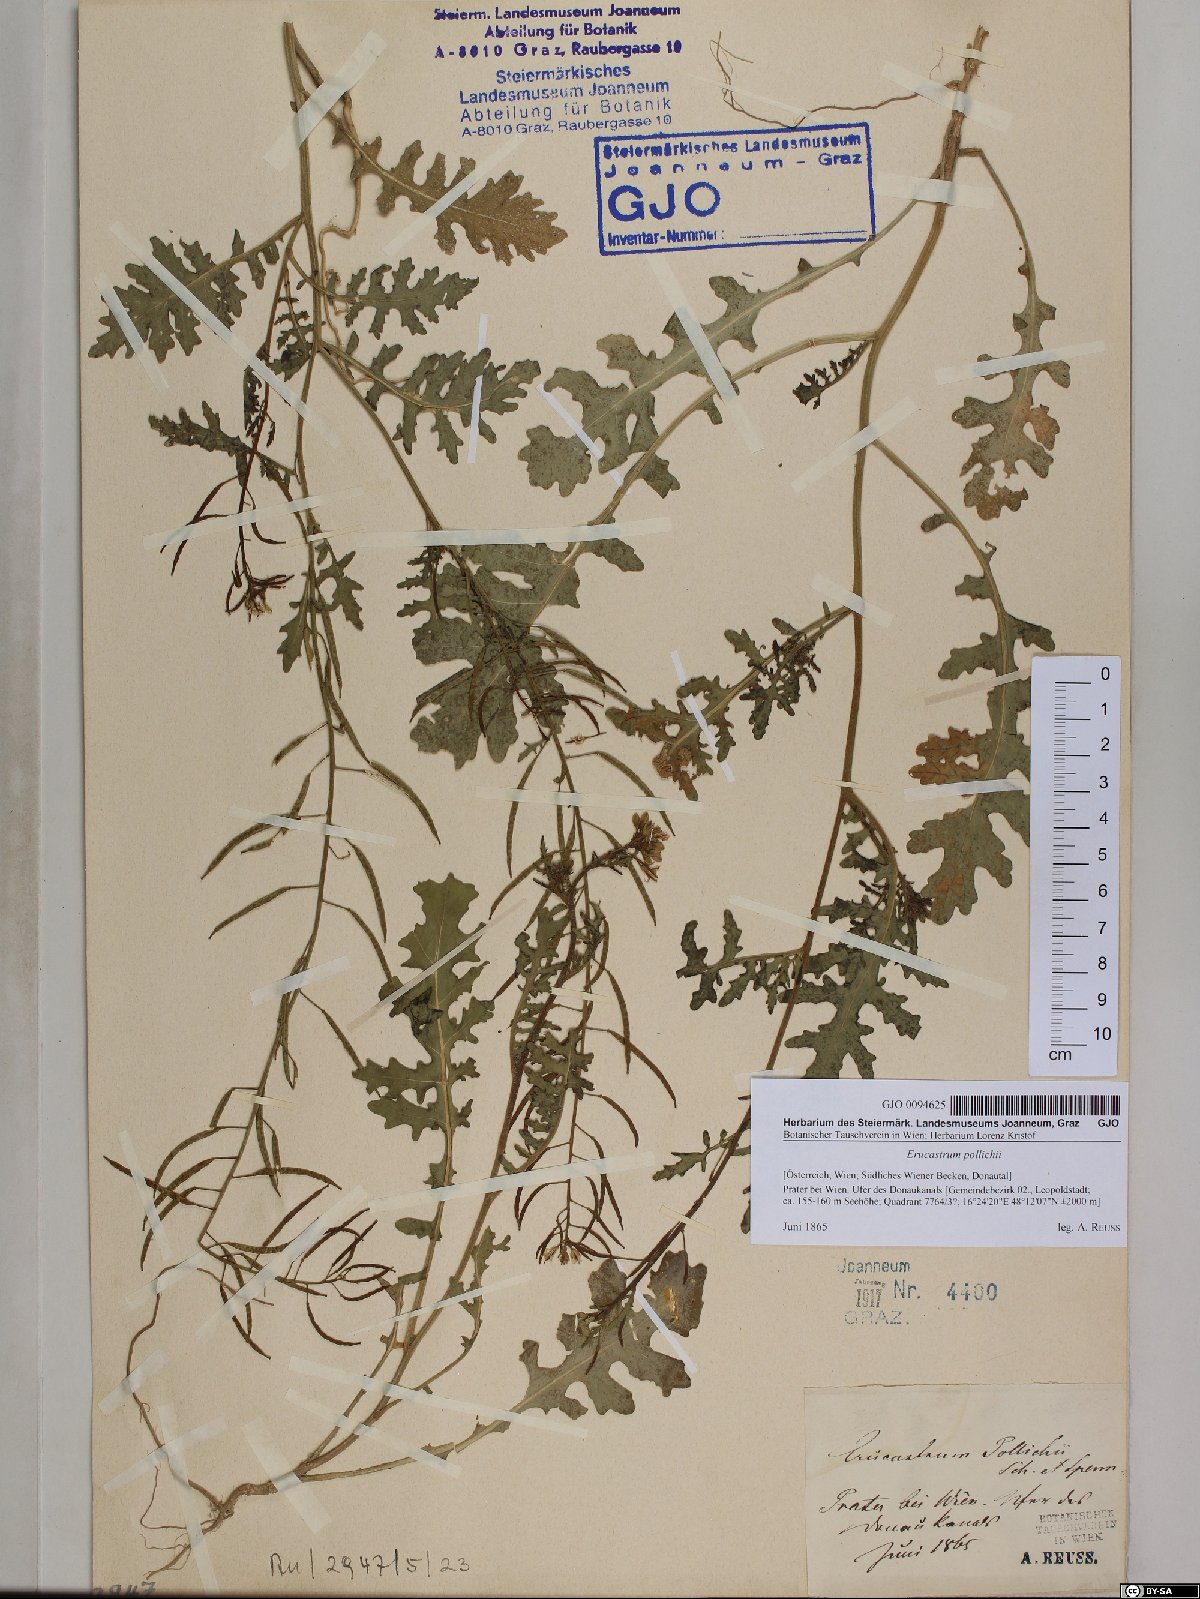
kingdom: Plantae
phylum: Tracheophyta
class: Magnoliopsida
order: Brassicales
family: Brassicaceae
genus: Erucastrum
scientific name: Erucastrum gallicum
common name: Hairy rocket
